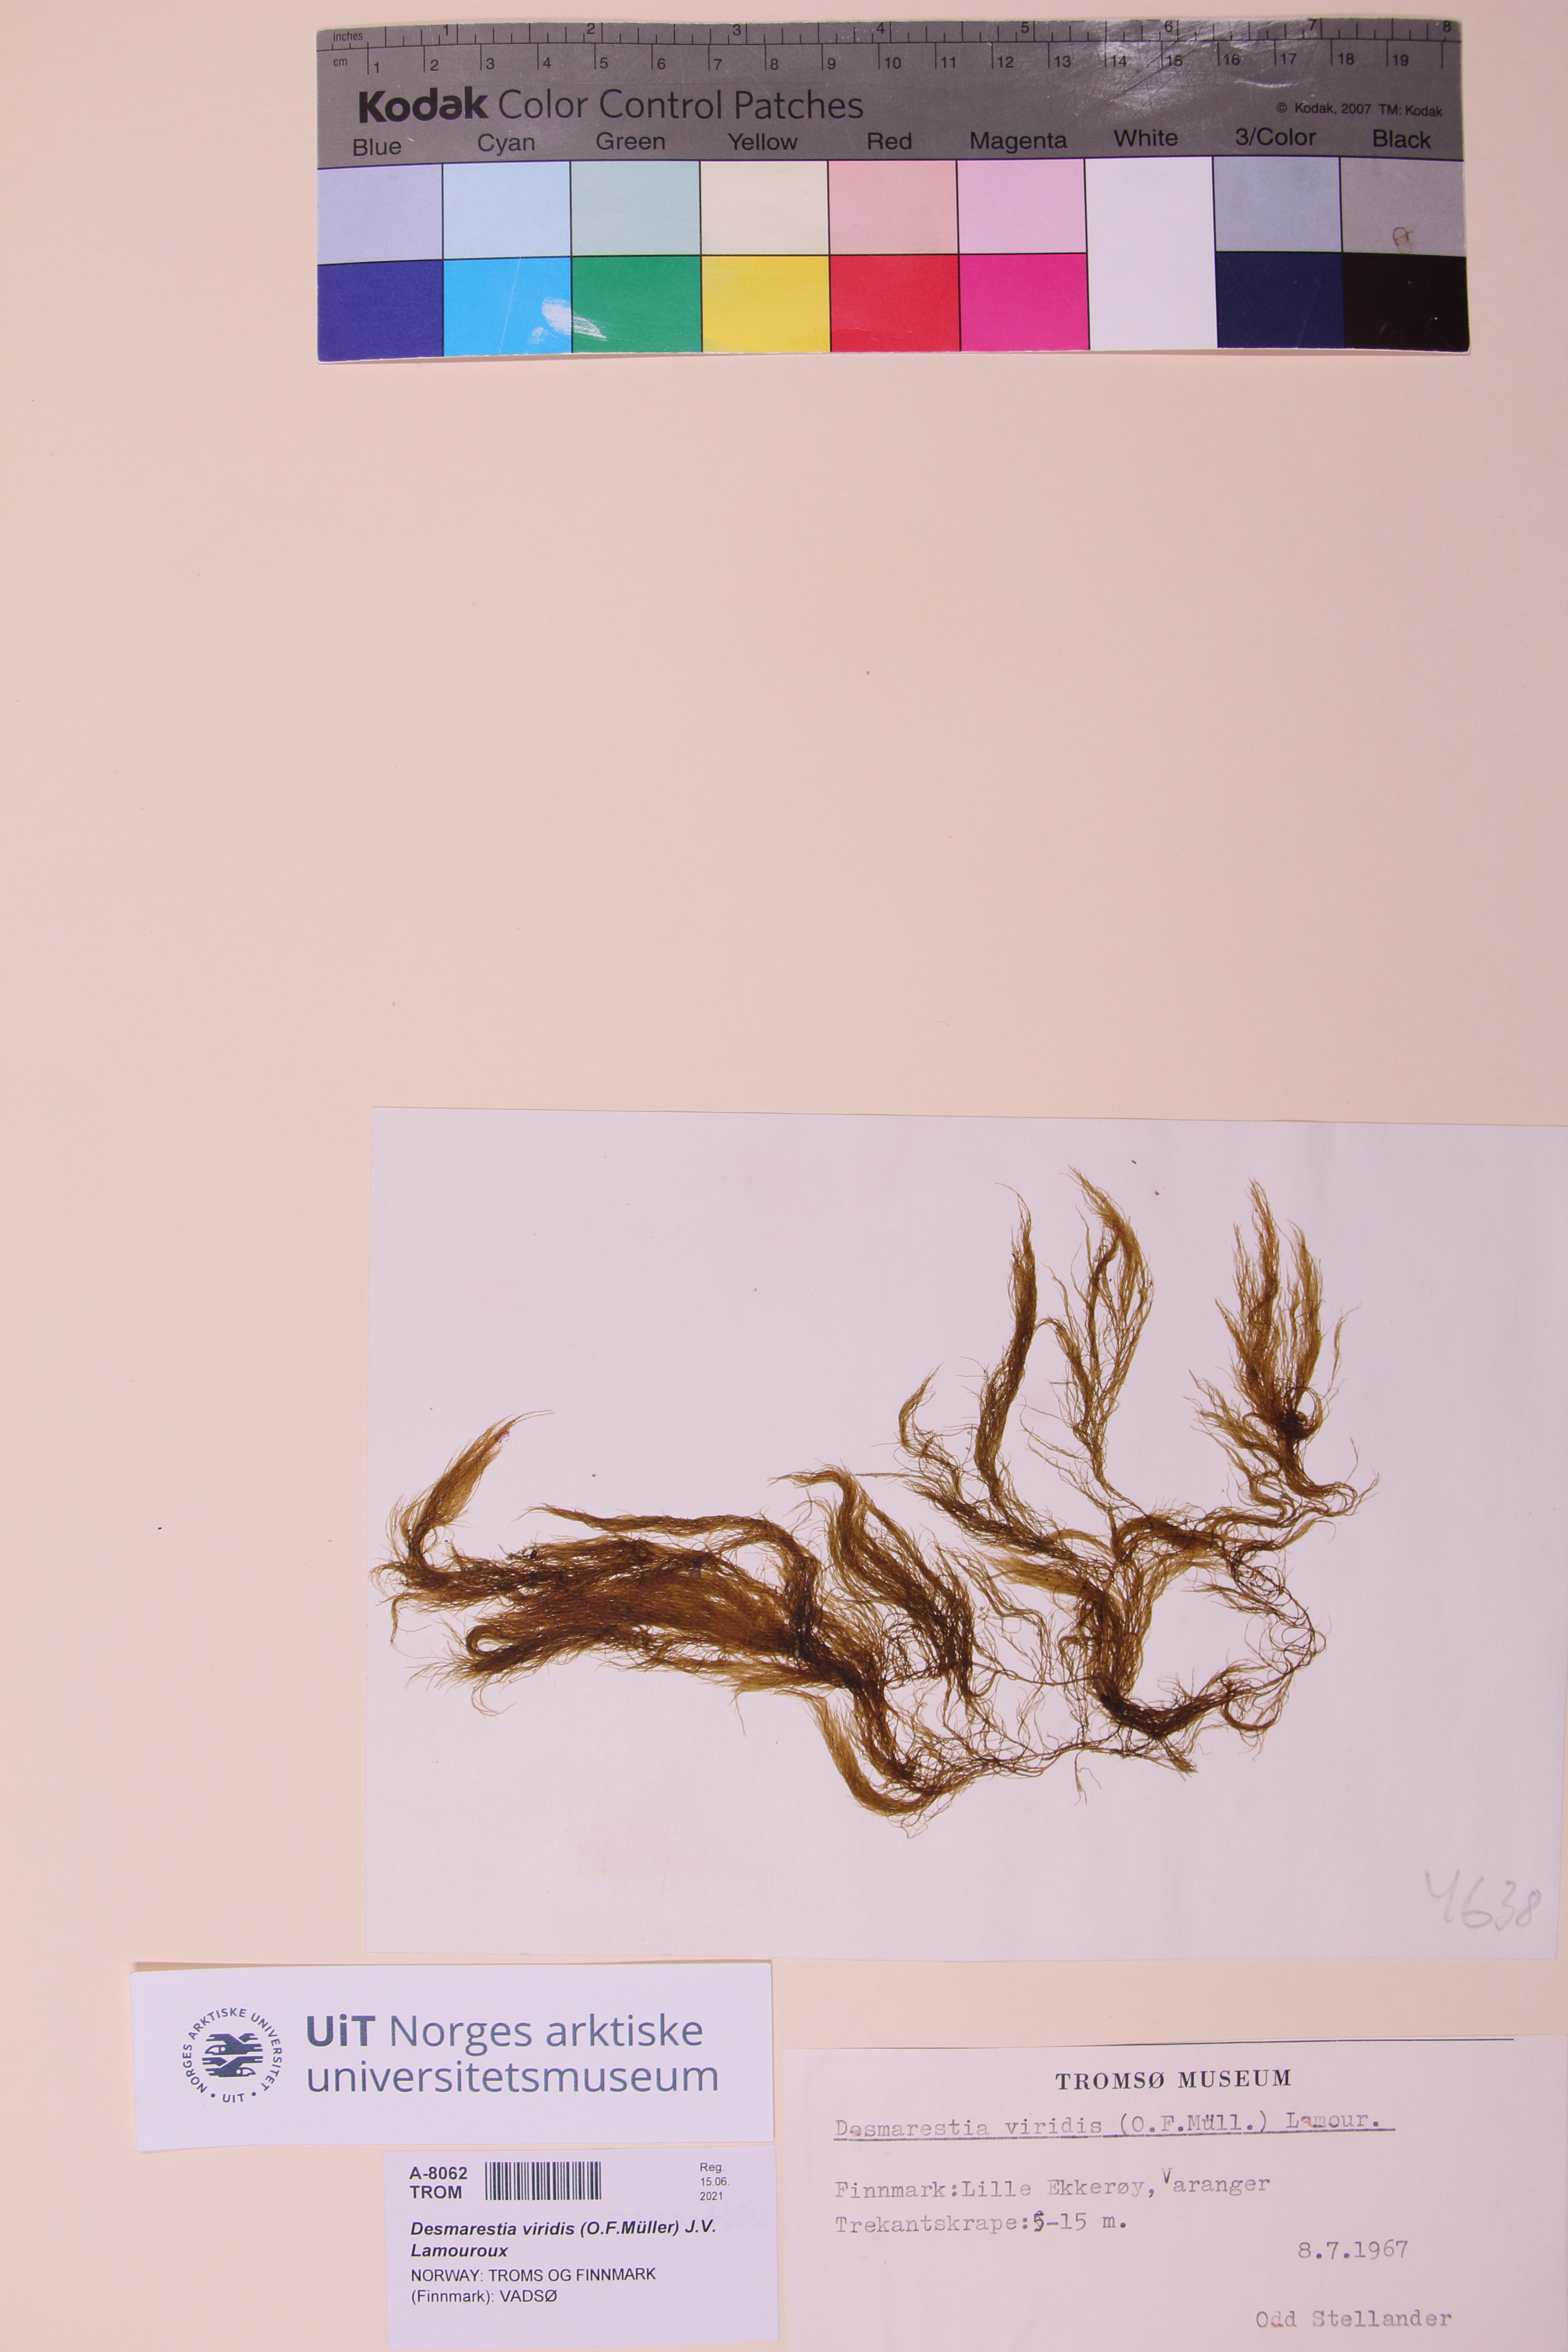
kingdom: Chromista
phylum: Ochrophyta
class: Phaeophyceae
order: Desmarestiales
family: Desmarestiaceae
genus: Desmarestia
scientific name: Desmarestia viridis
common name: Stringy acid kelp
